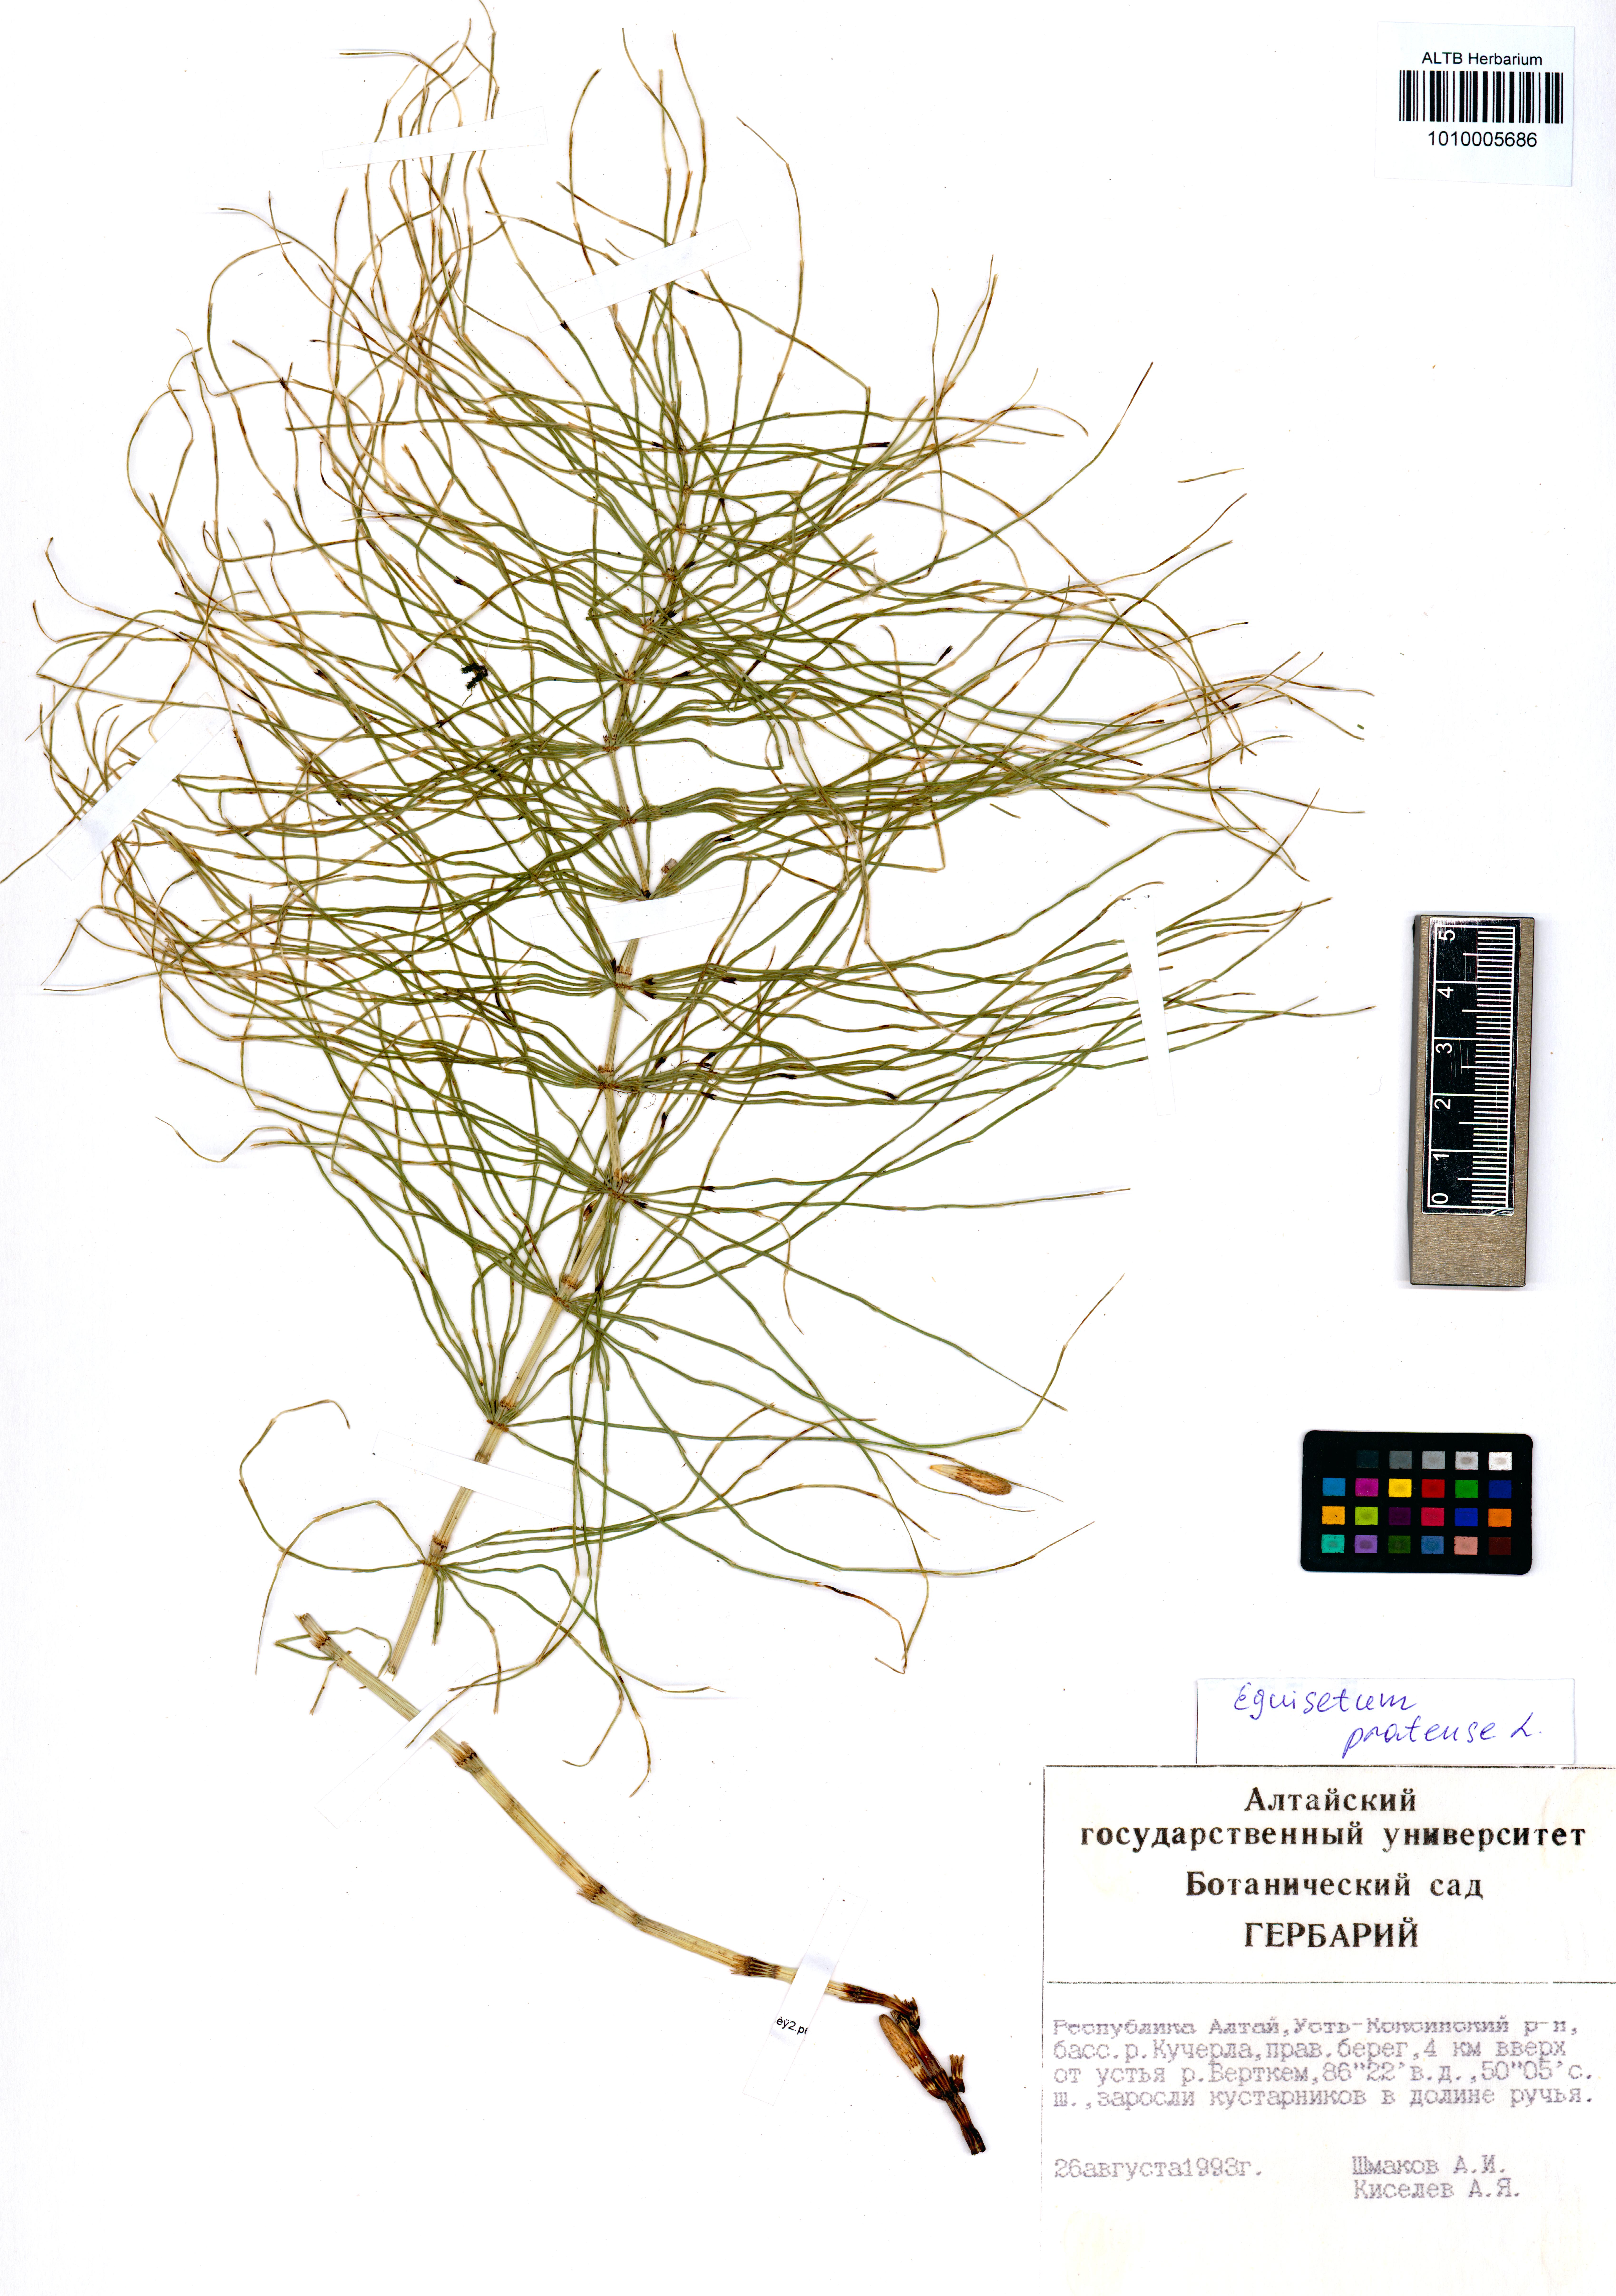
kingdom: Plantae
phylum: Tracheophyta
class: Polypodiopsida
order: Equisetales
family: Equisetaceae
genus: Equisetum
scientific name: Equisetum pratense
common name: Meadow horsetail
